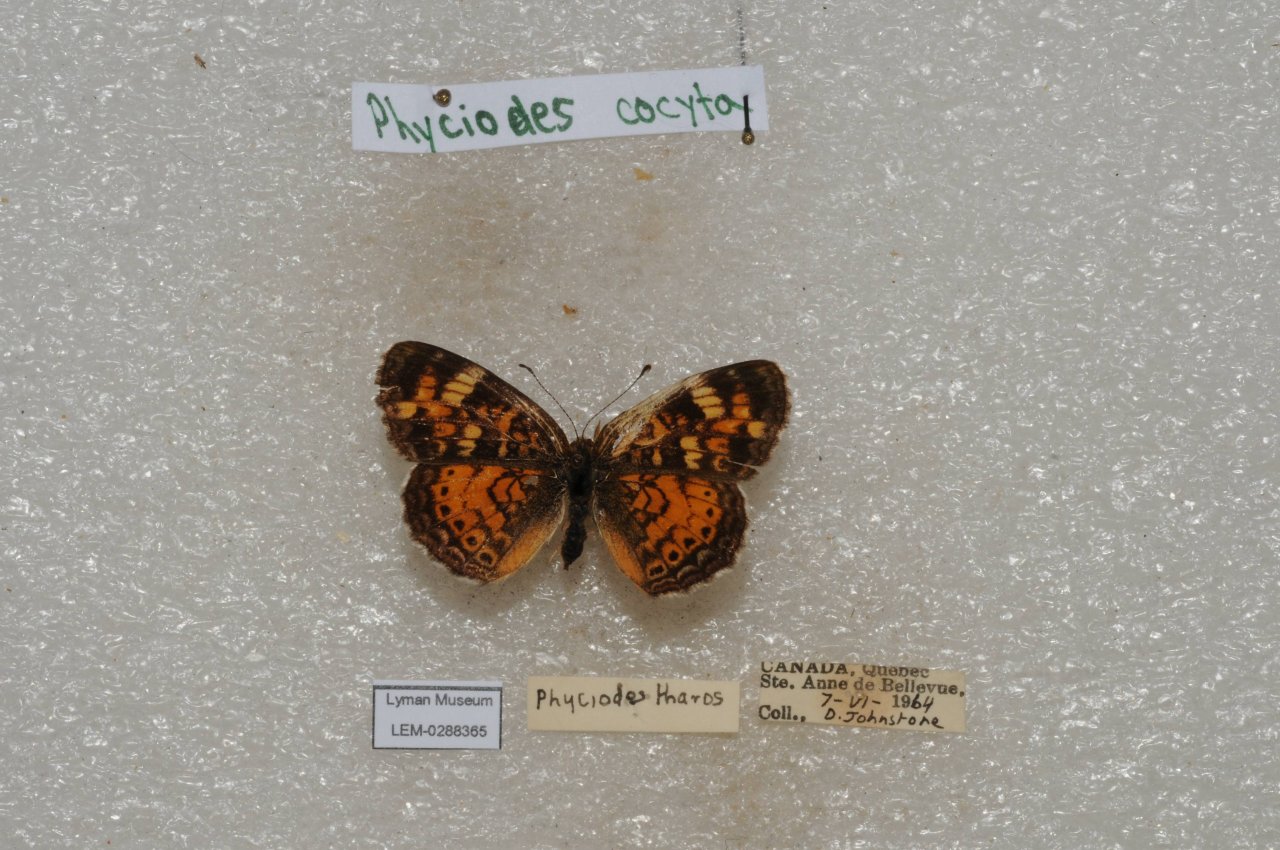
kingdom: Animalia
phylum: Arthropoda
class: Insecta
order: Lepidoptera
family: Nymphalidae
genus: Phyciodes
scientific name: Phyciodes tharos
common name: Northern Crescent
